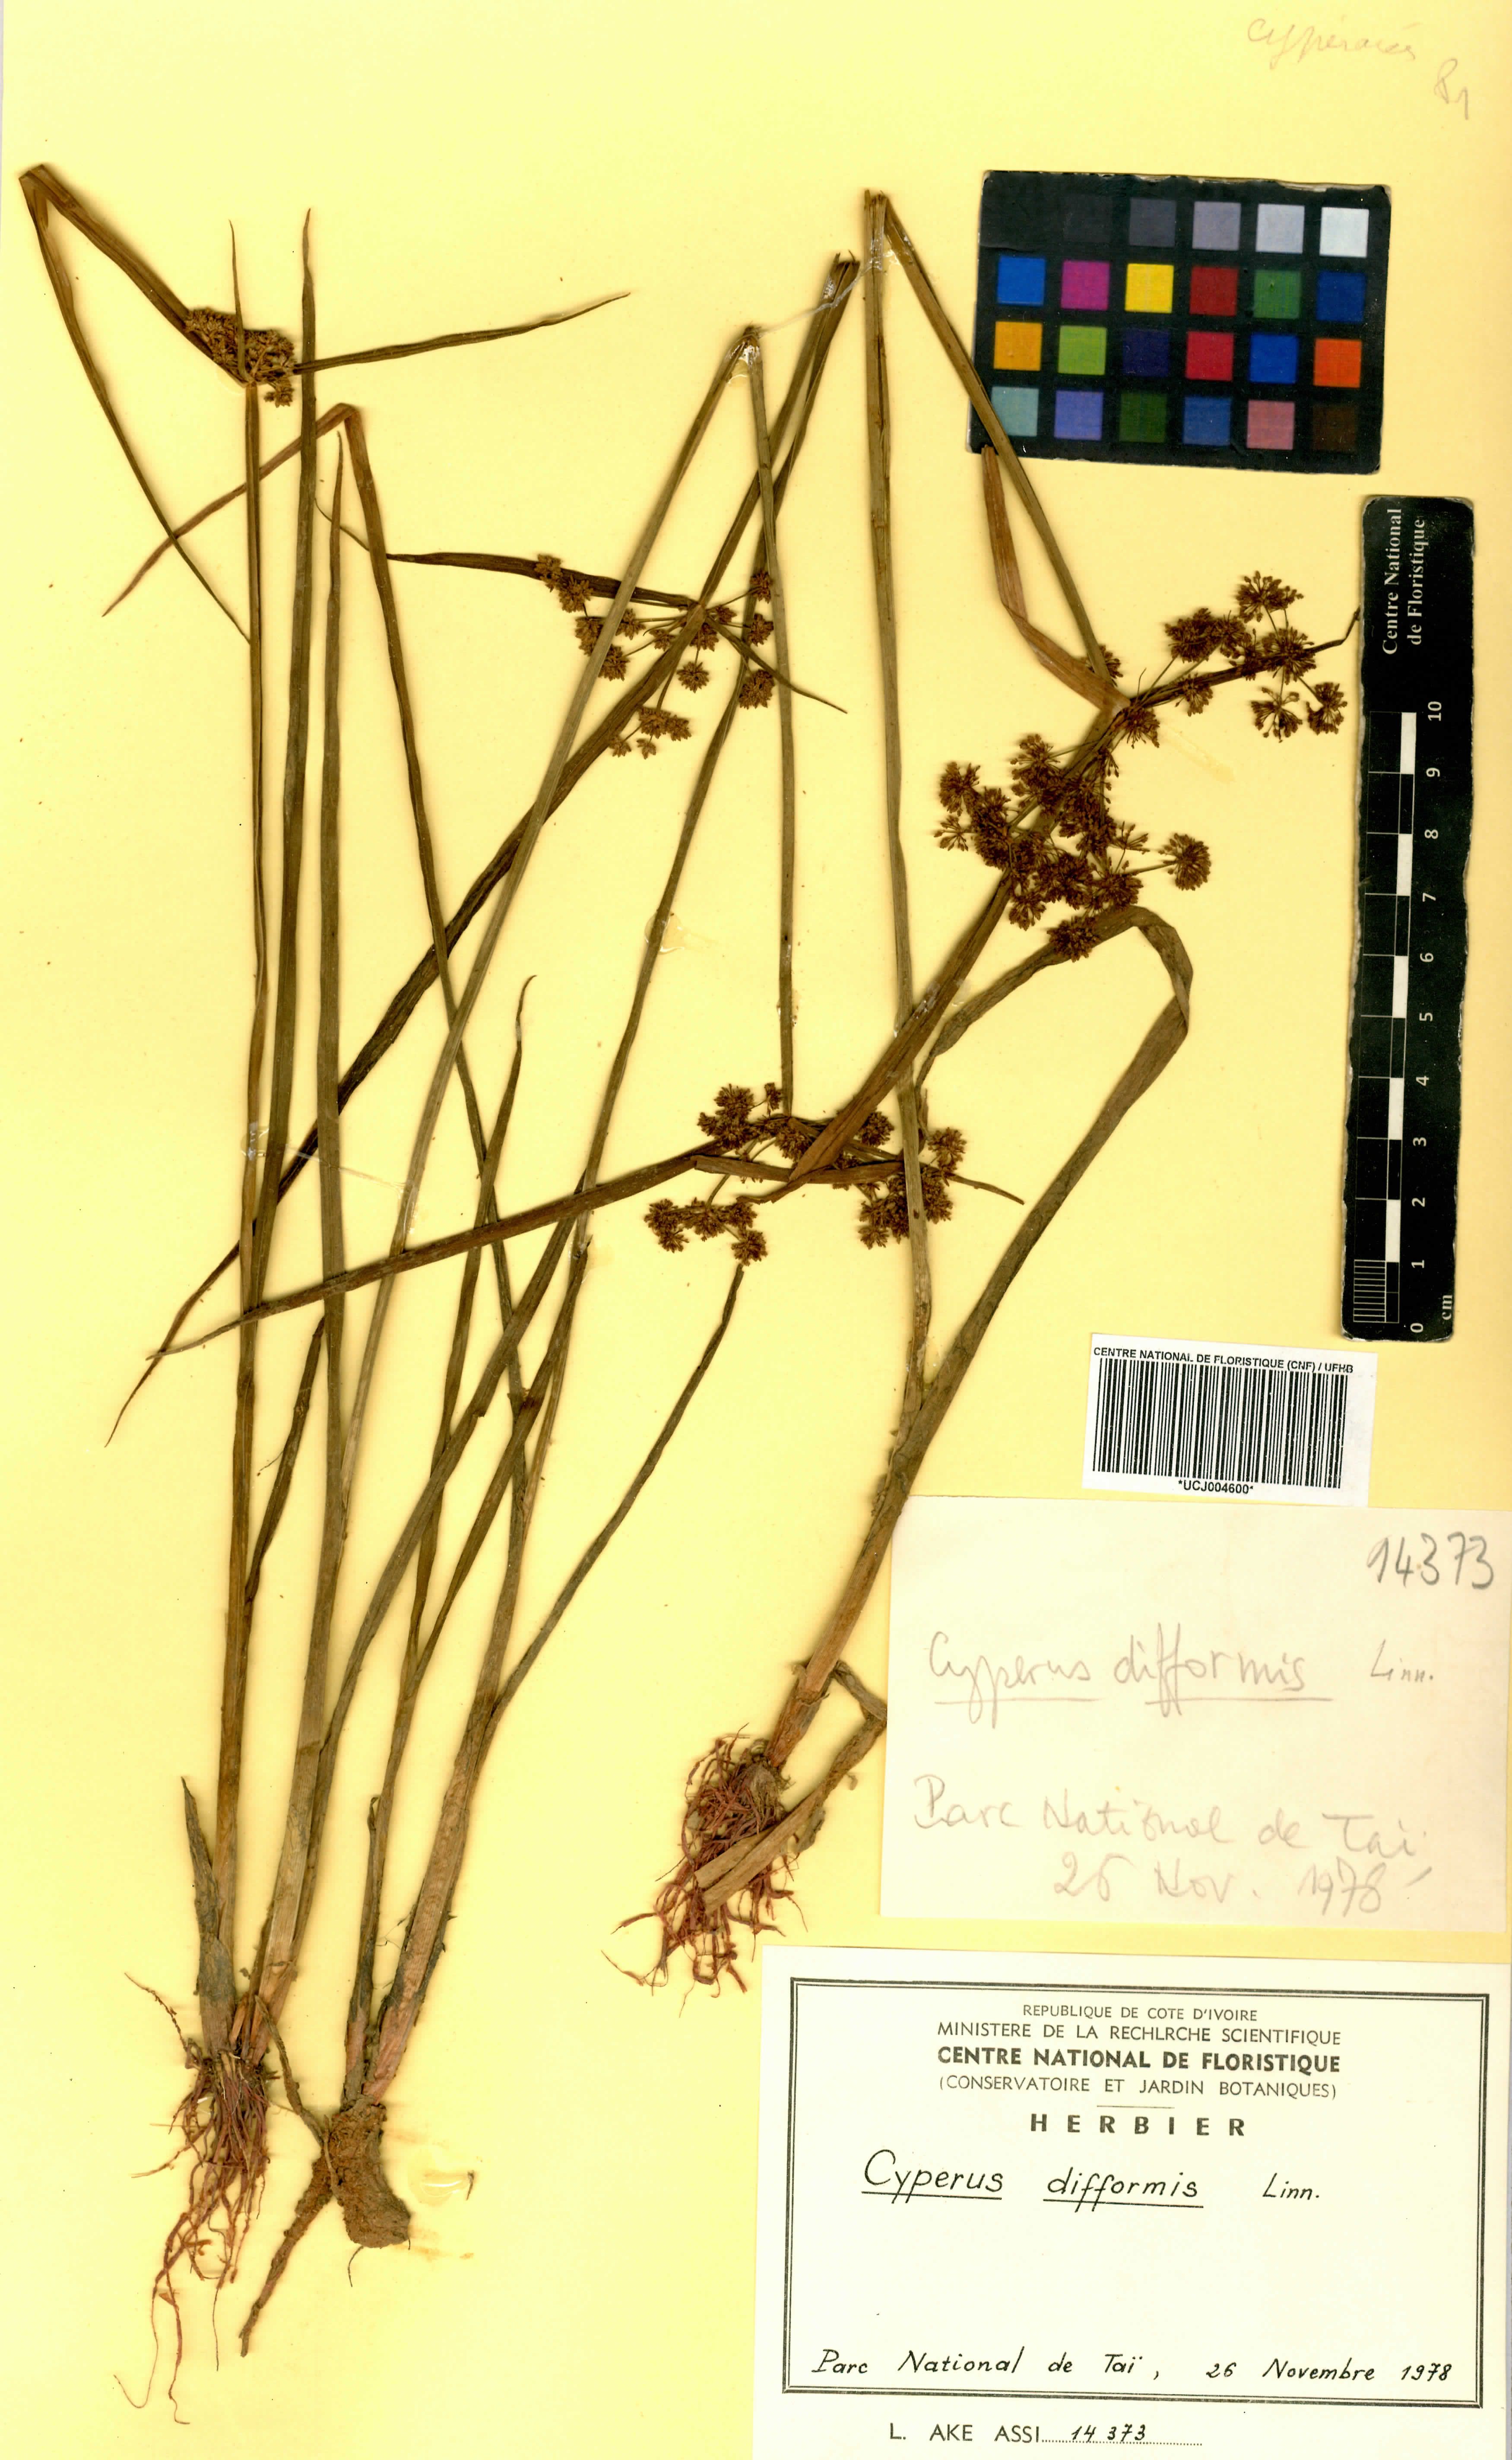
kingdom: Plantae
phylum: Tracheophyta
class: Liliopsida
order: Poales
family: Cyperaceae
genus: Cyperus
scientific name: Cyperus difformis
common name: Variable flatsedge
